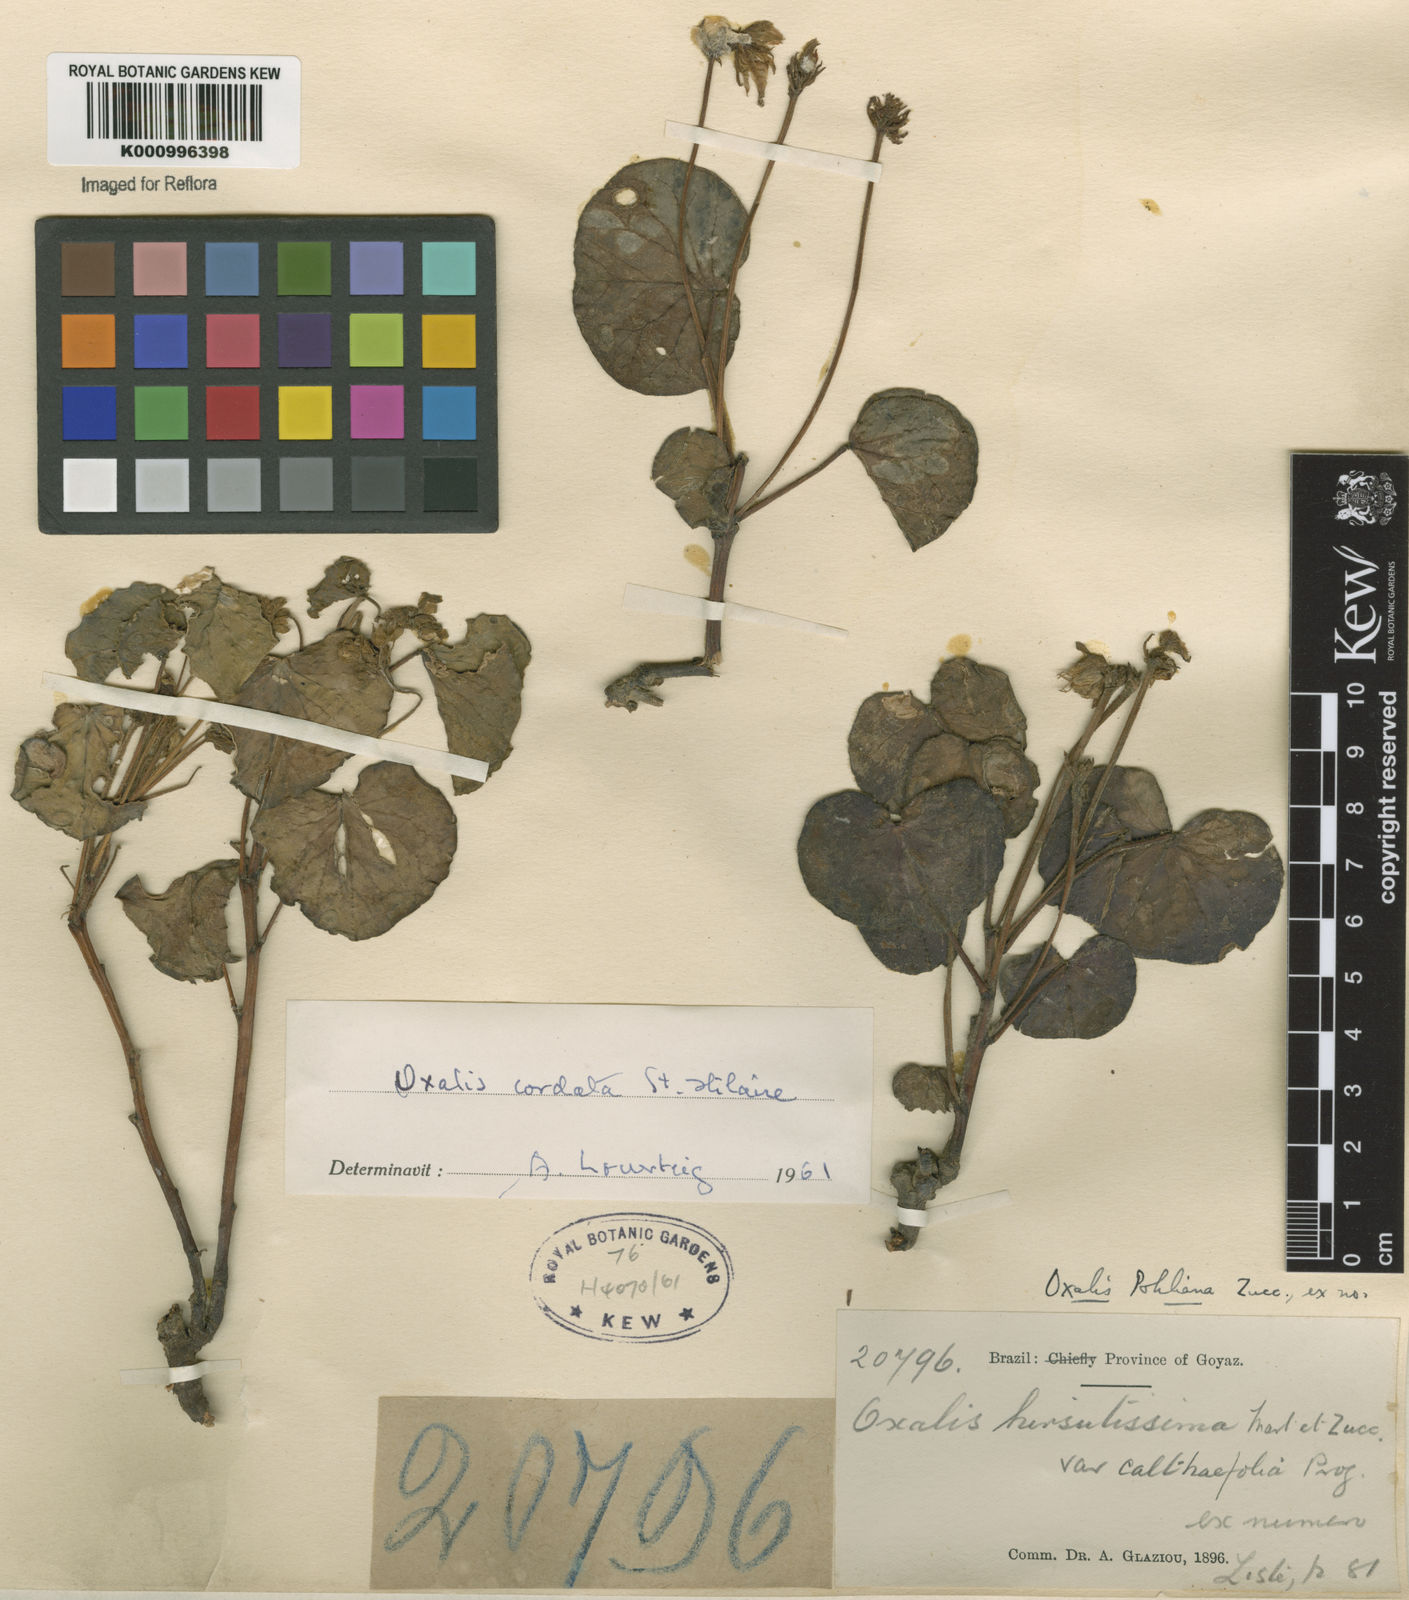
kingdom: Plantae
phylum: Tracheophyta
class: Magnoliopsida
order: Oxalidales
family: Oxalidaceae
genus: Oxalis
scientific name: Oxalis cordata
